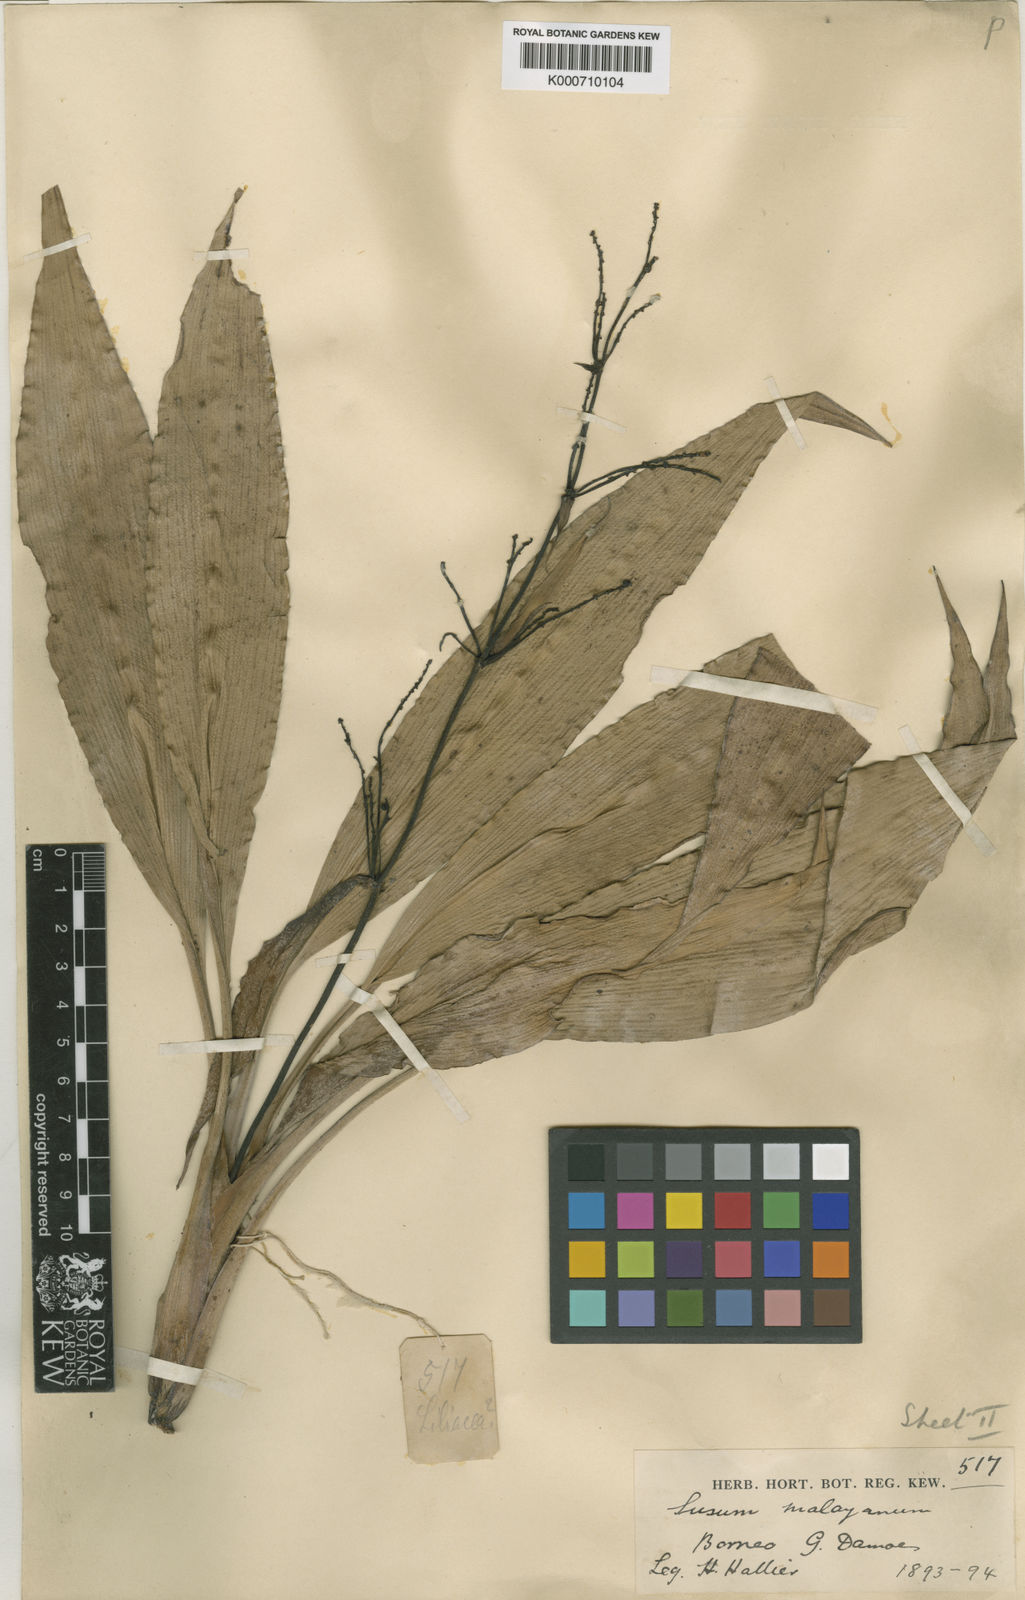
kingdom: Plantae
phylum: Tracheophyta
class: Liliopsida
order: Commelinales
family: Hanguanaceae
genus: Hanguana
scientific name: Hanguana malayana
